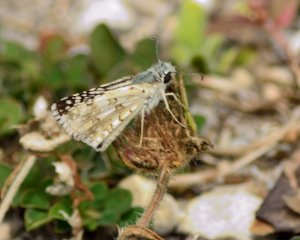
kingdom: Animalia
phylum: Arthropoda
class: Insecta
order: Lepidoptera
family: Hesperiidae
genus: Pyrgus
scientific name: Pyrgus
